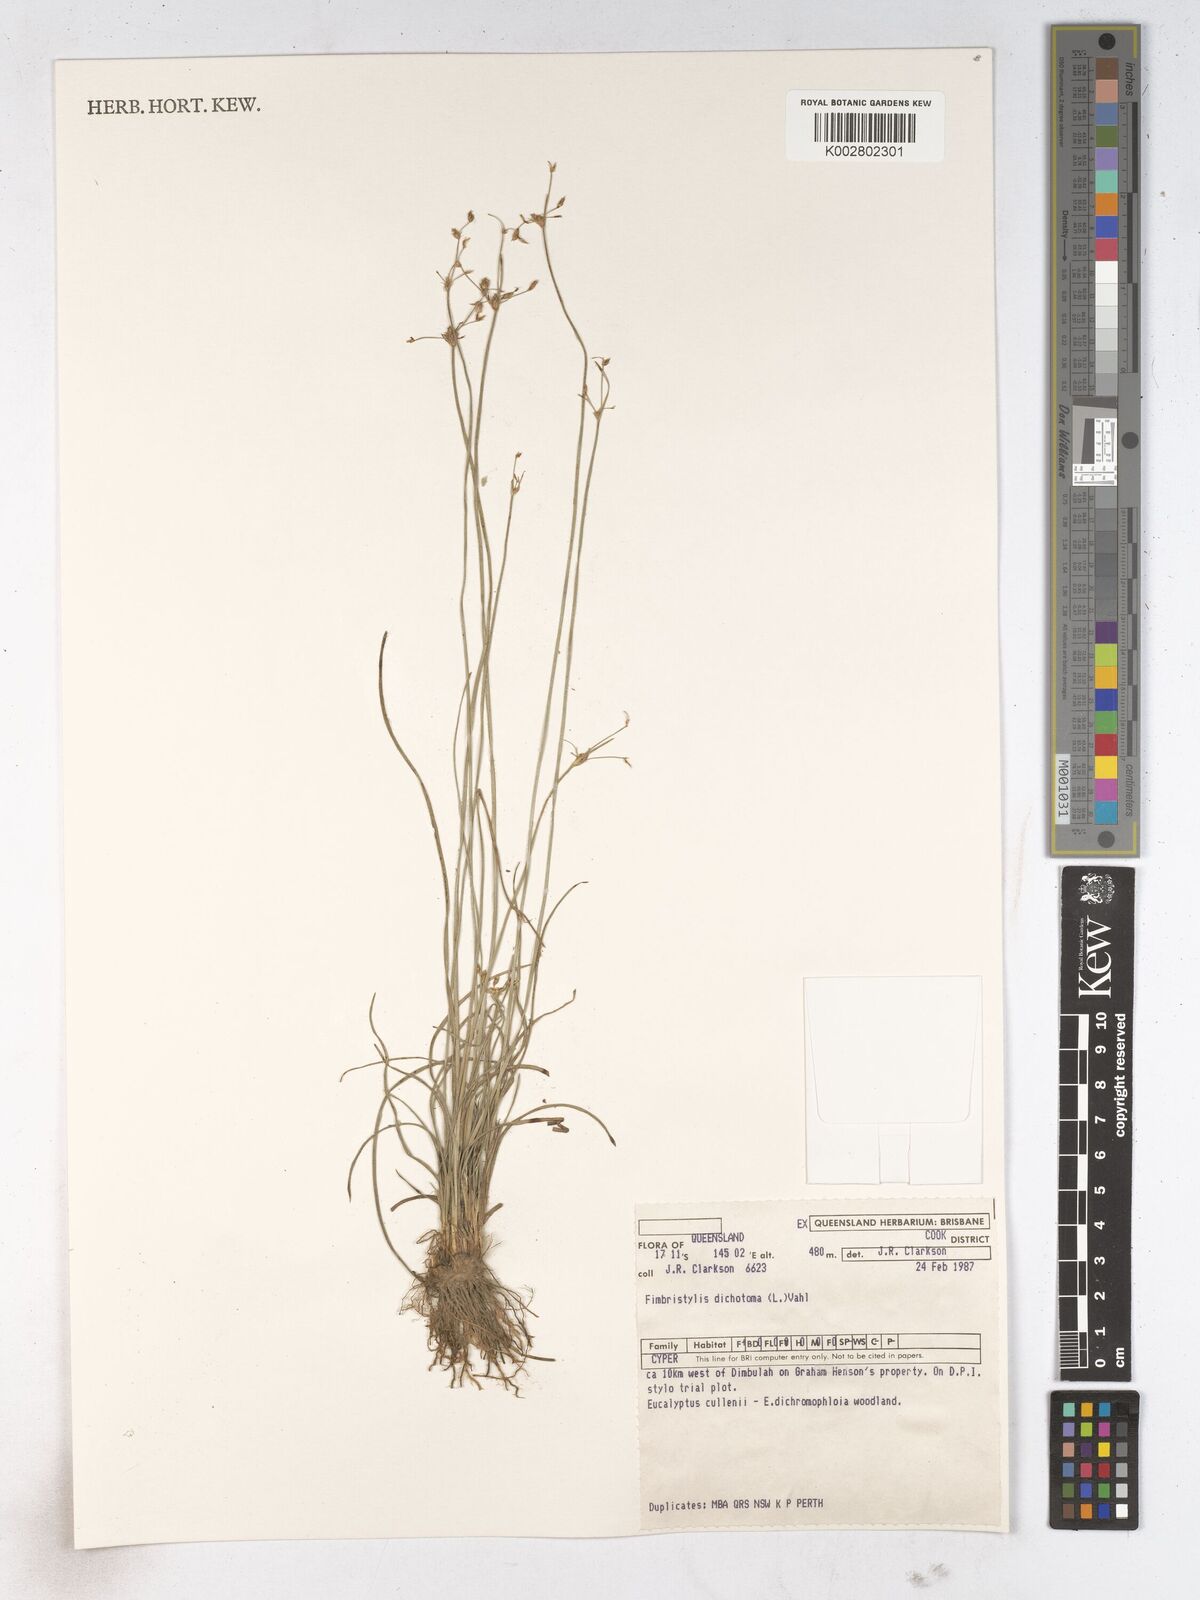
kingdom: Plantae
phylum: Tracheophyta
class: Liliopsida
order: Poales
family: Cyperaceae
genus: Fimbristylis
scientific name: Fimbristylis dichotoma
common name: Forked fimbry
